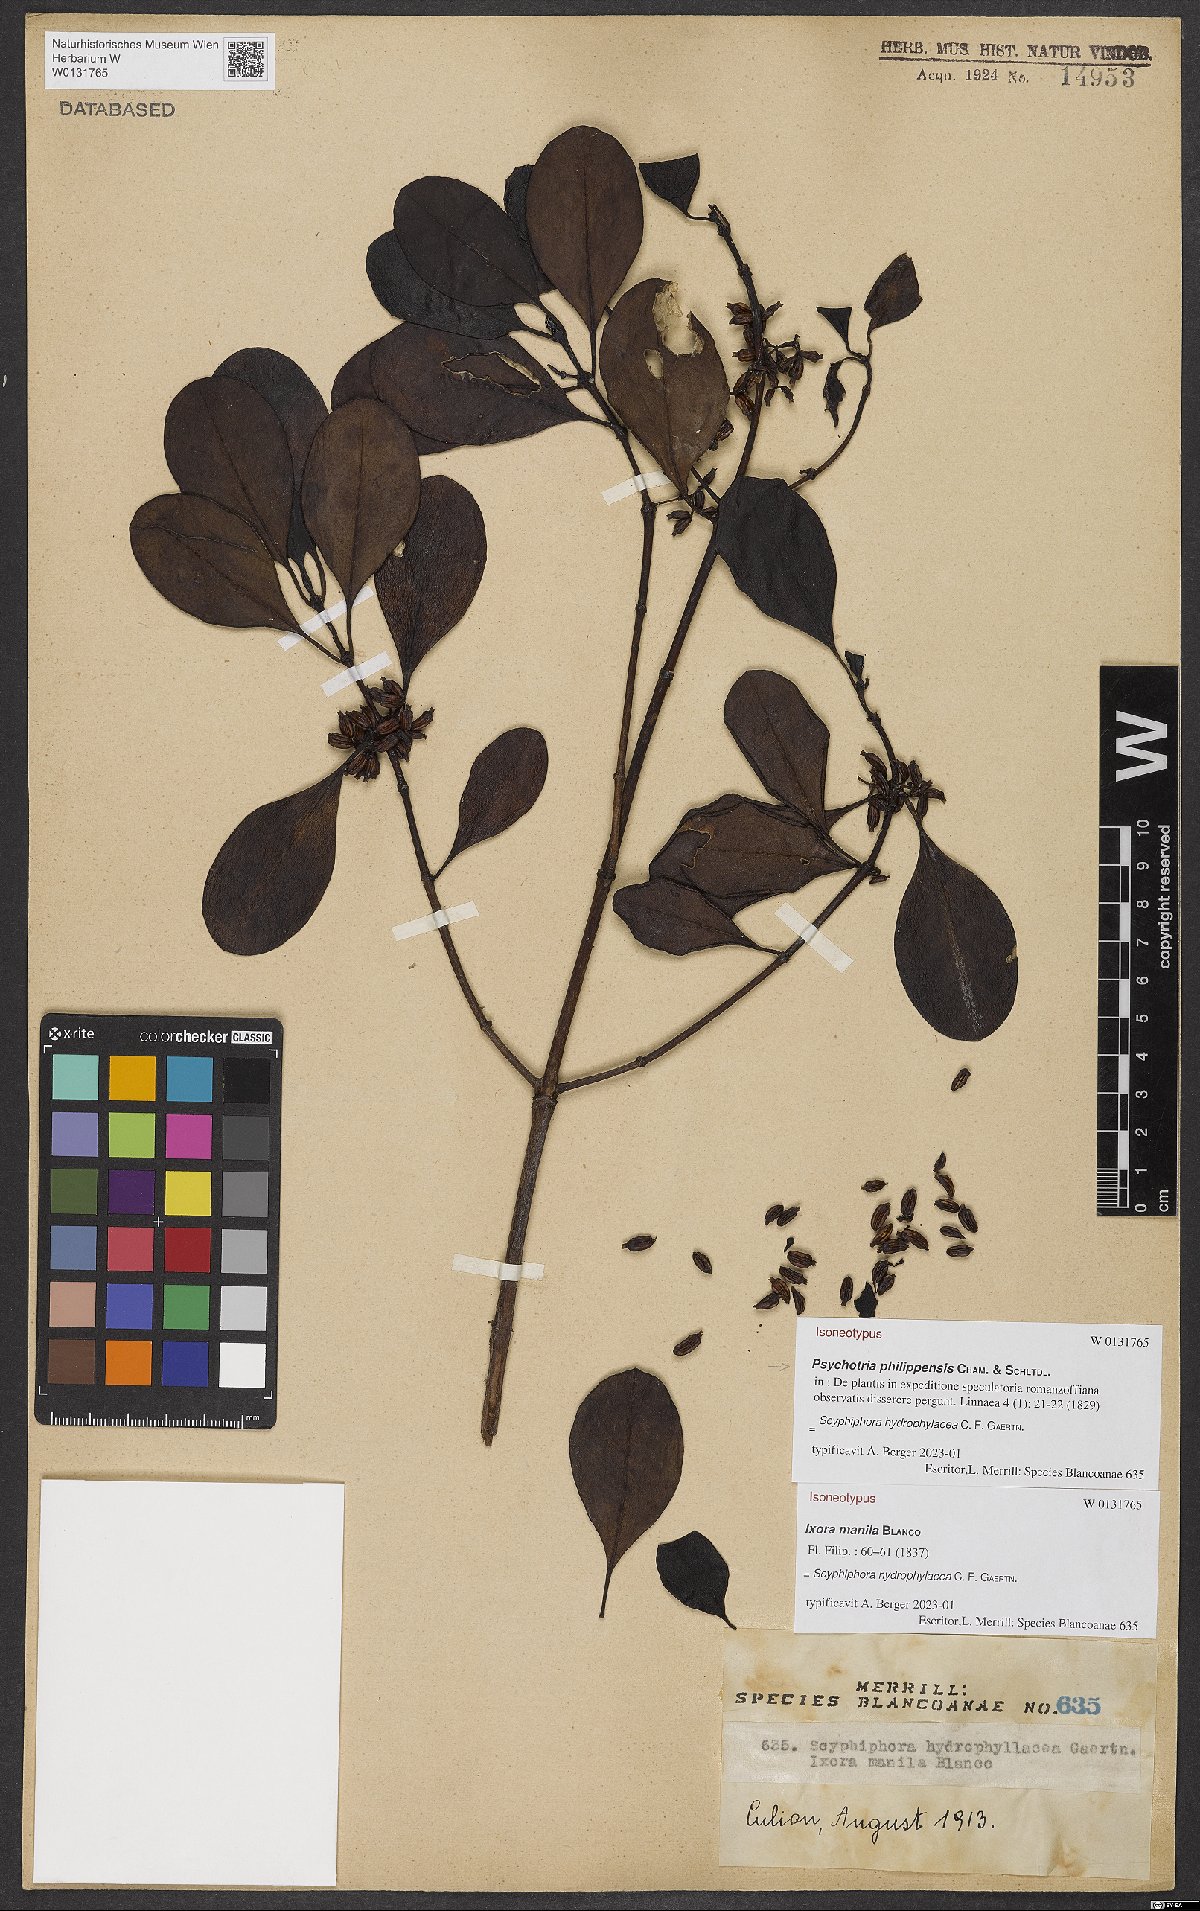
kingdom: Plantae
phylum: Tracheophyta
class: Magnoliopsida
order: Gentianales
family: Rubiaceae
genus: Psychotria
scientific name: Psychotria philippensis
